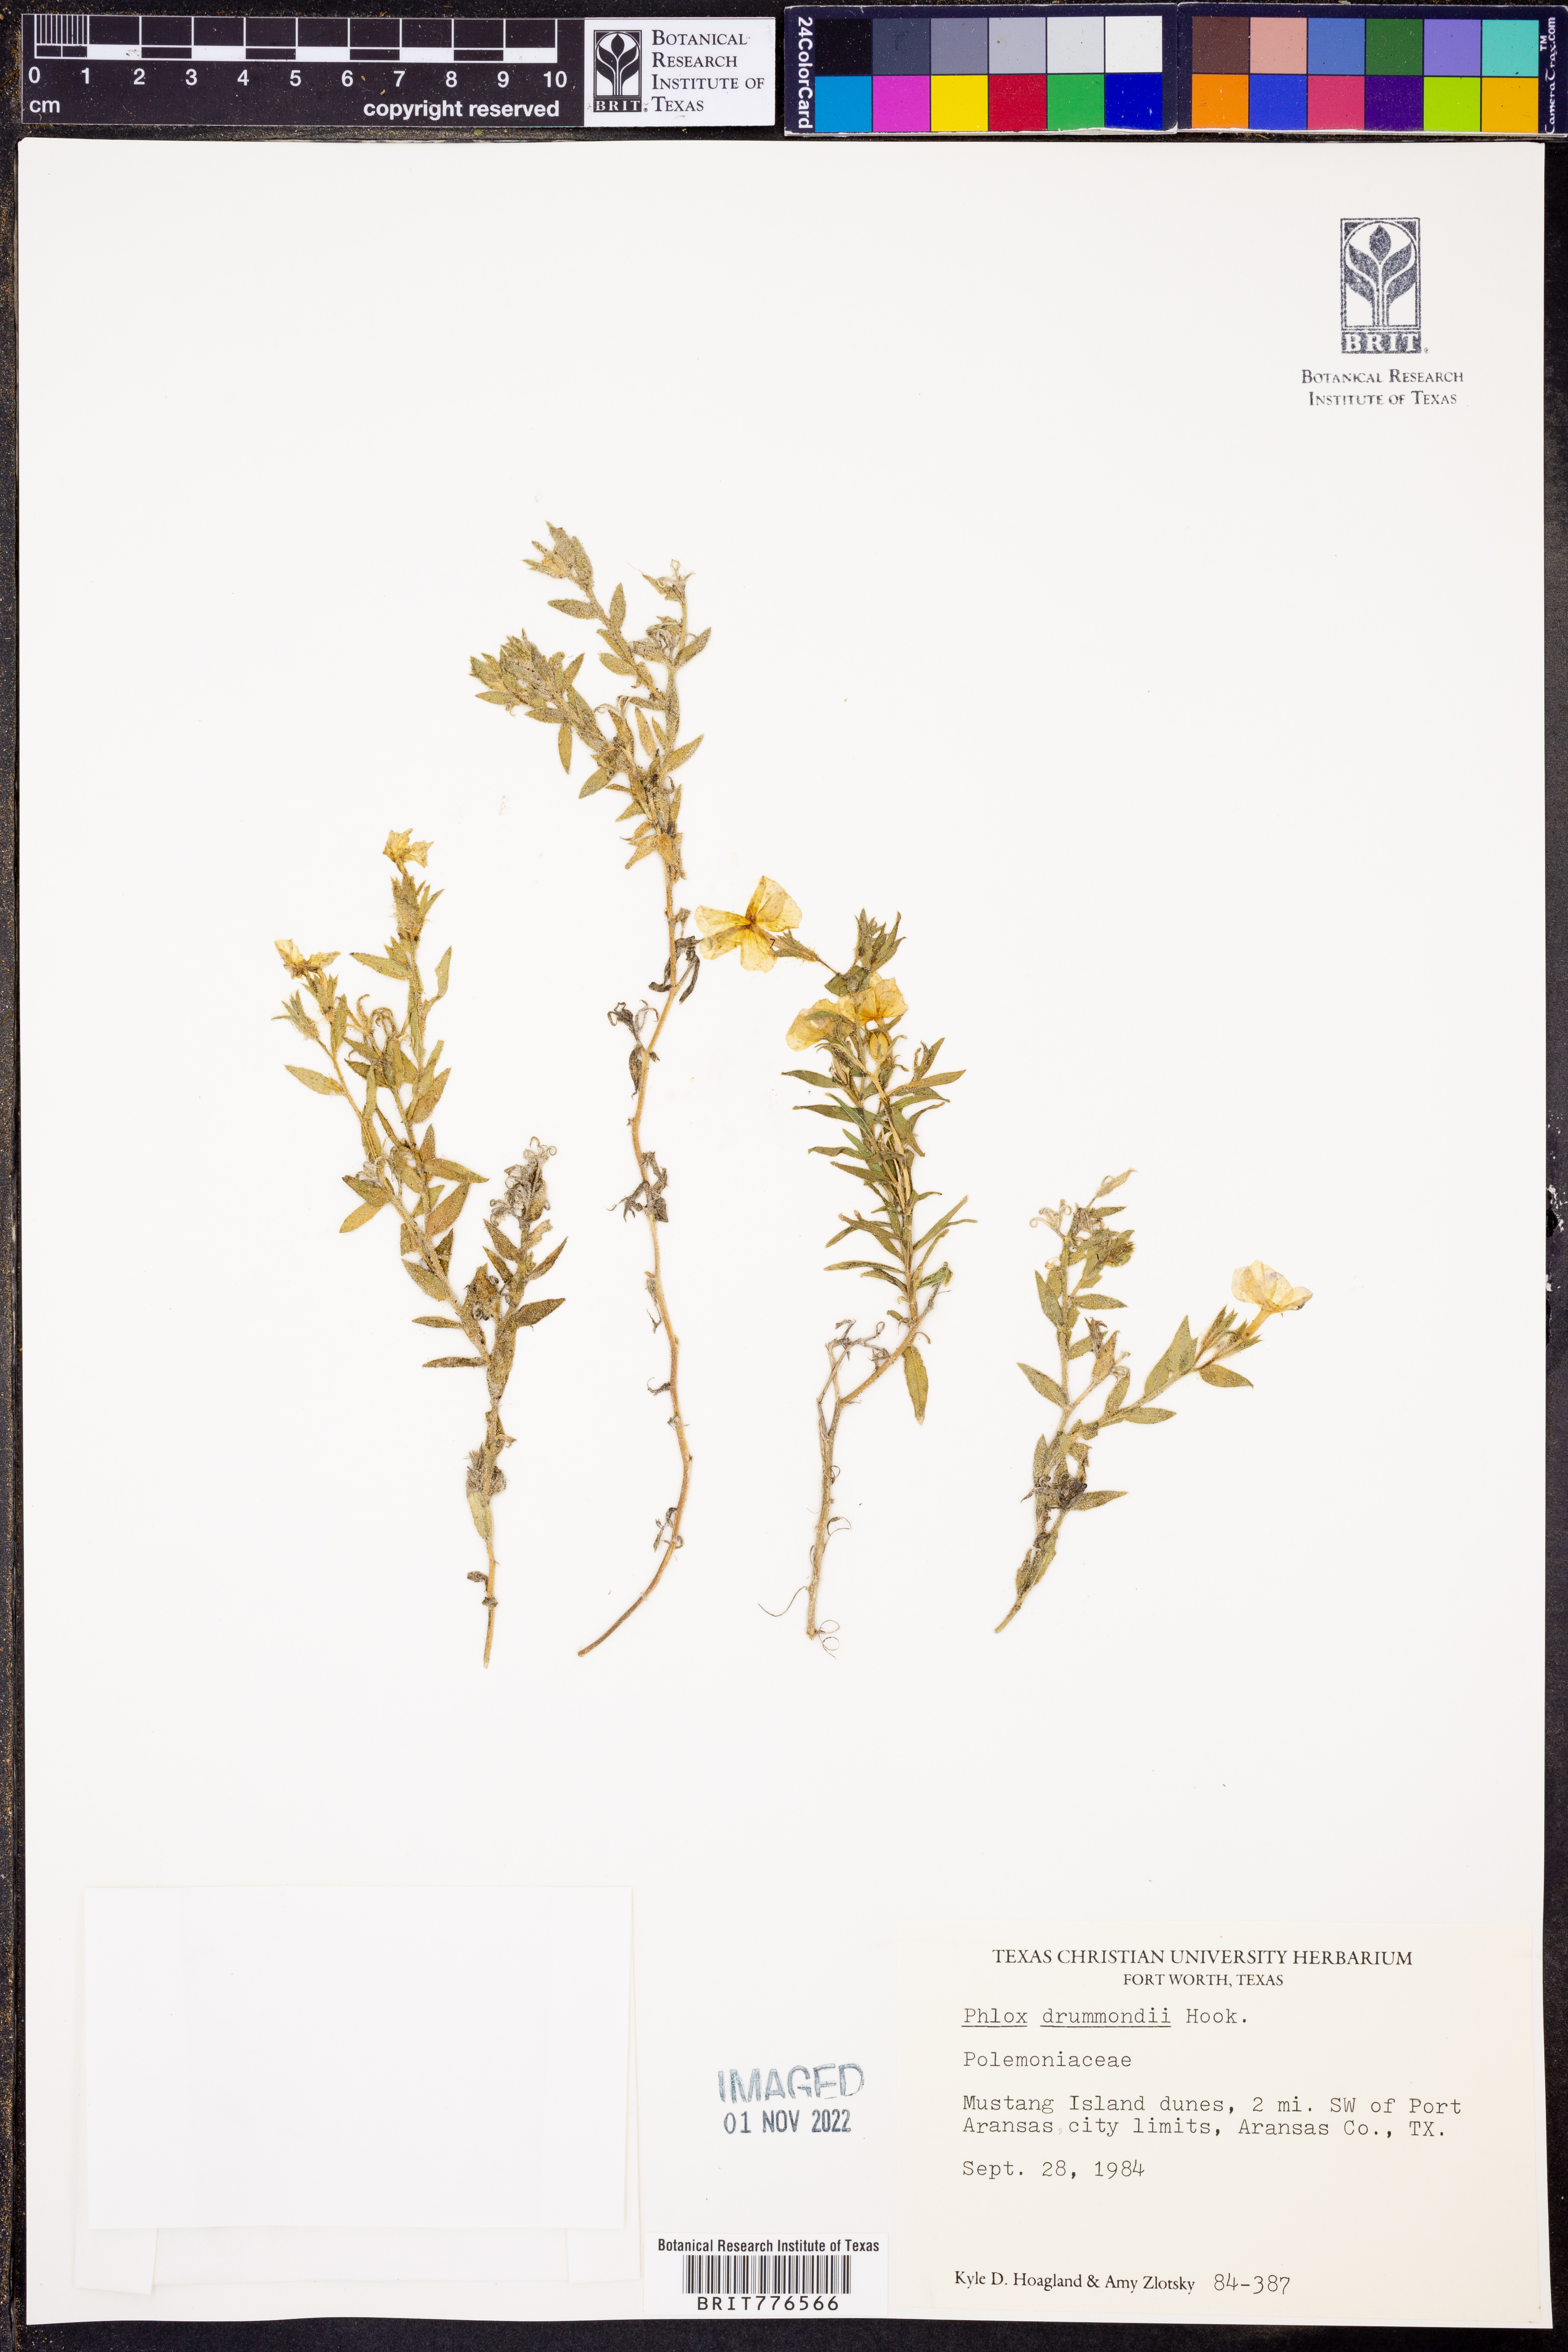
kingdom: Plantae
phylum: Tracheophyta
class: Magnoliopsida
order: Ericales
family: Polemoniaceae
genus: Phlox
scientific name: Phlox drummondii
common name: Drummond's phlox
